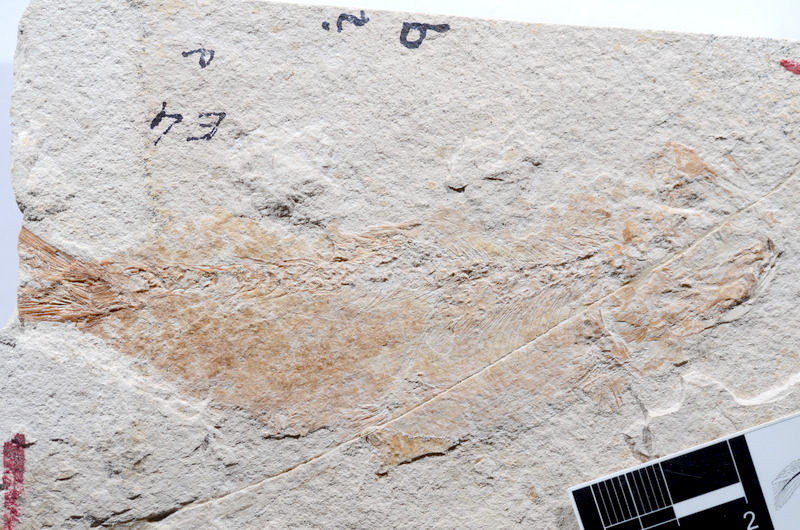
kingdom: Animalia
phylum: Chordata
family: Ascalaboidae
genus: Tharsis
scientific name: Tharsis dubius
